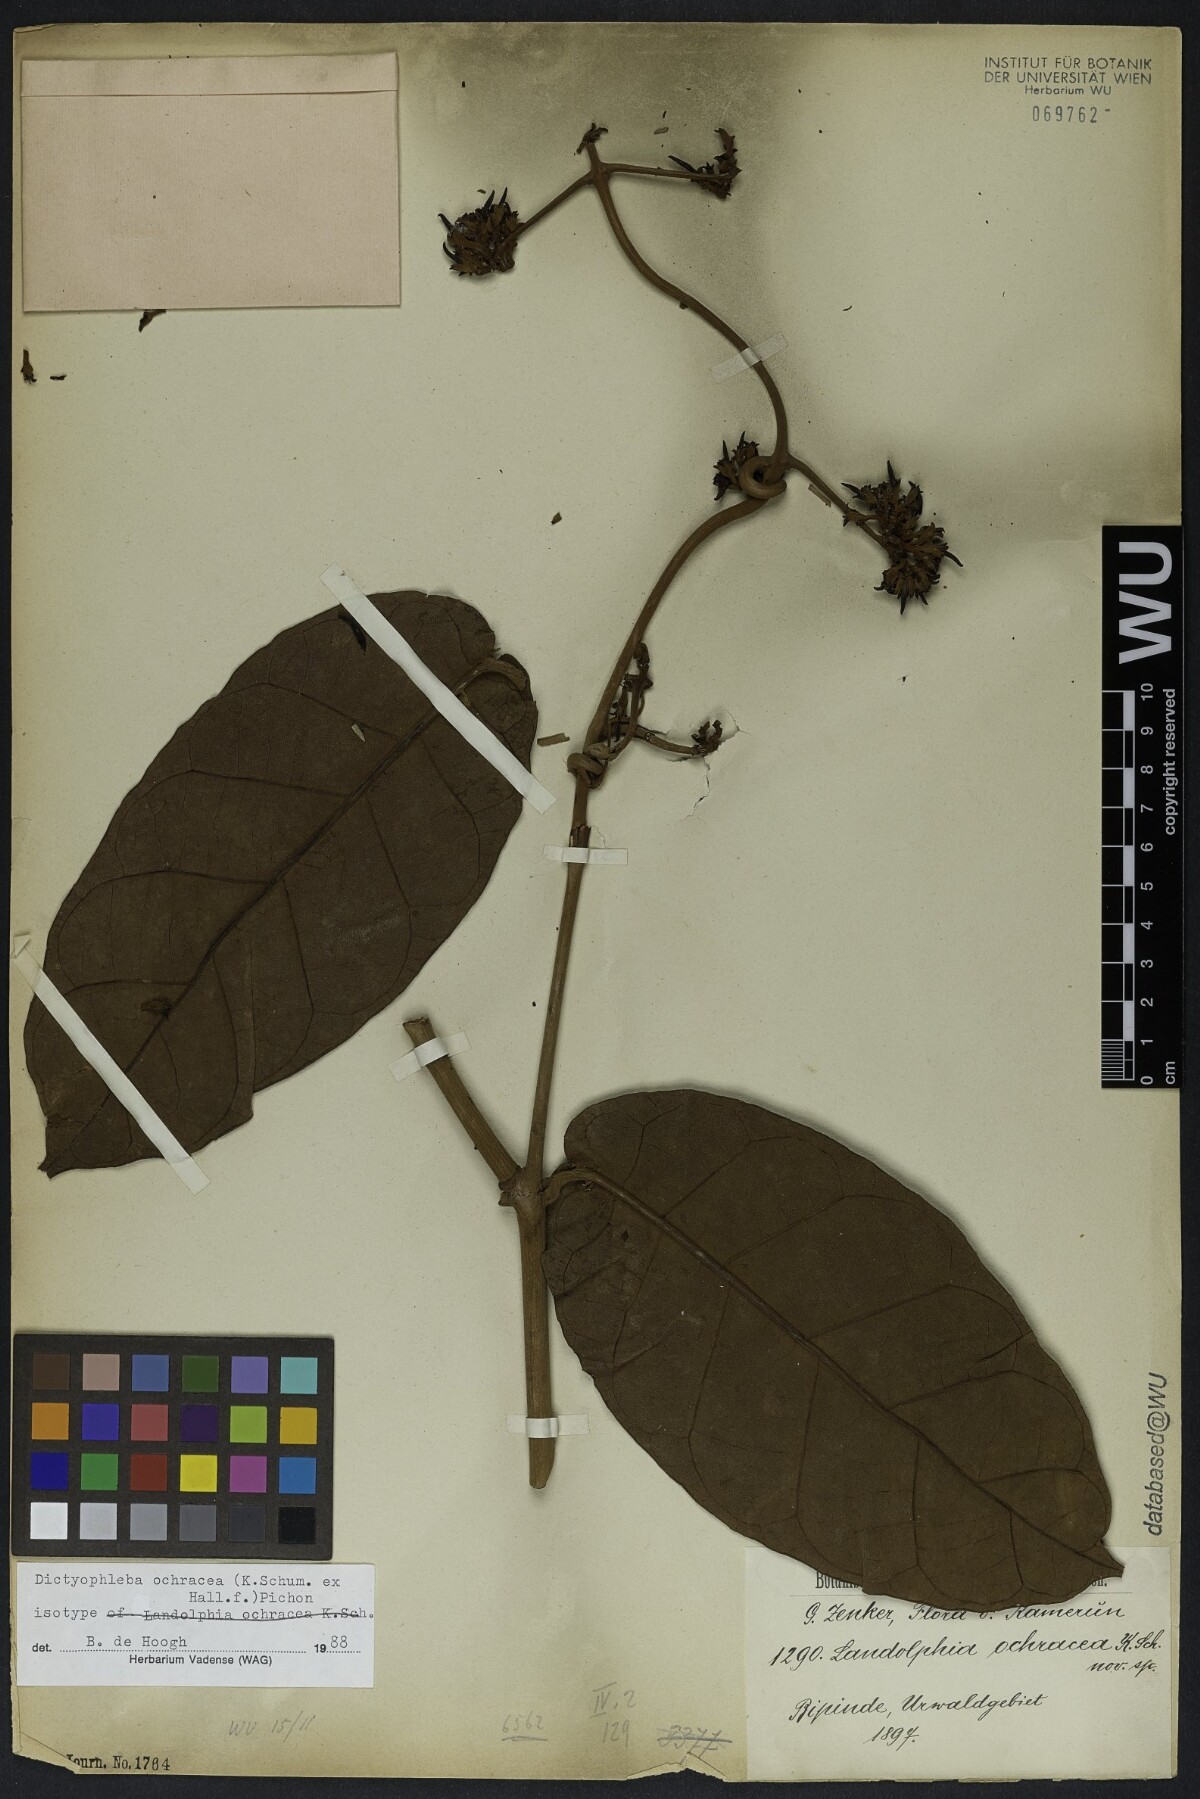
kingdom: Plantae
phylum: Tracheophyta
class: Magnoliopsida
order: Gentianales
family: Apocynaceae
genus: Dictyophleba
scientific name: Dictyophleba ochracea
